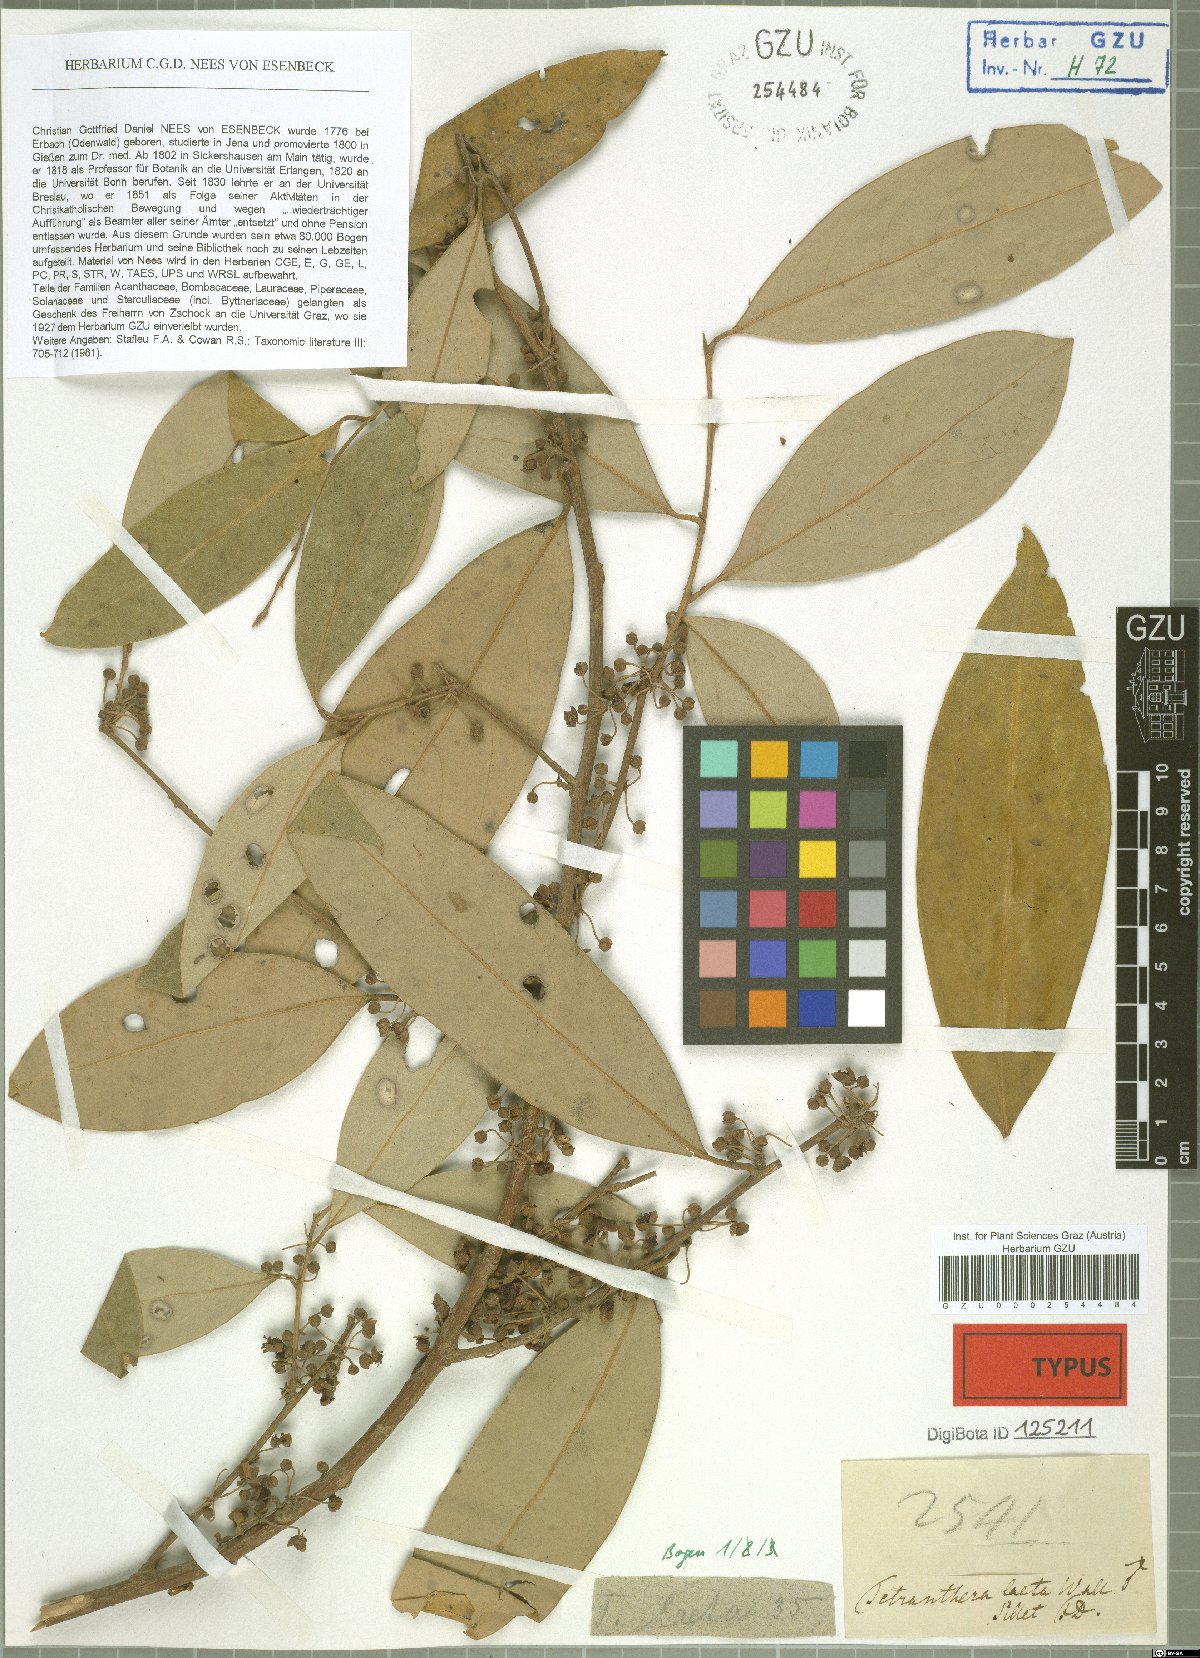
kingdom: Plantae
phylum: Tracheophyta
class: Magnoliopsida
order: Laurales
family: Lauraceae
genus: Litsea
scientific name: Litsea laeta
